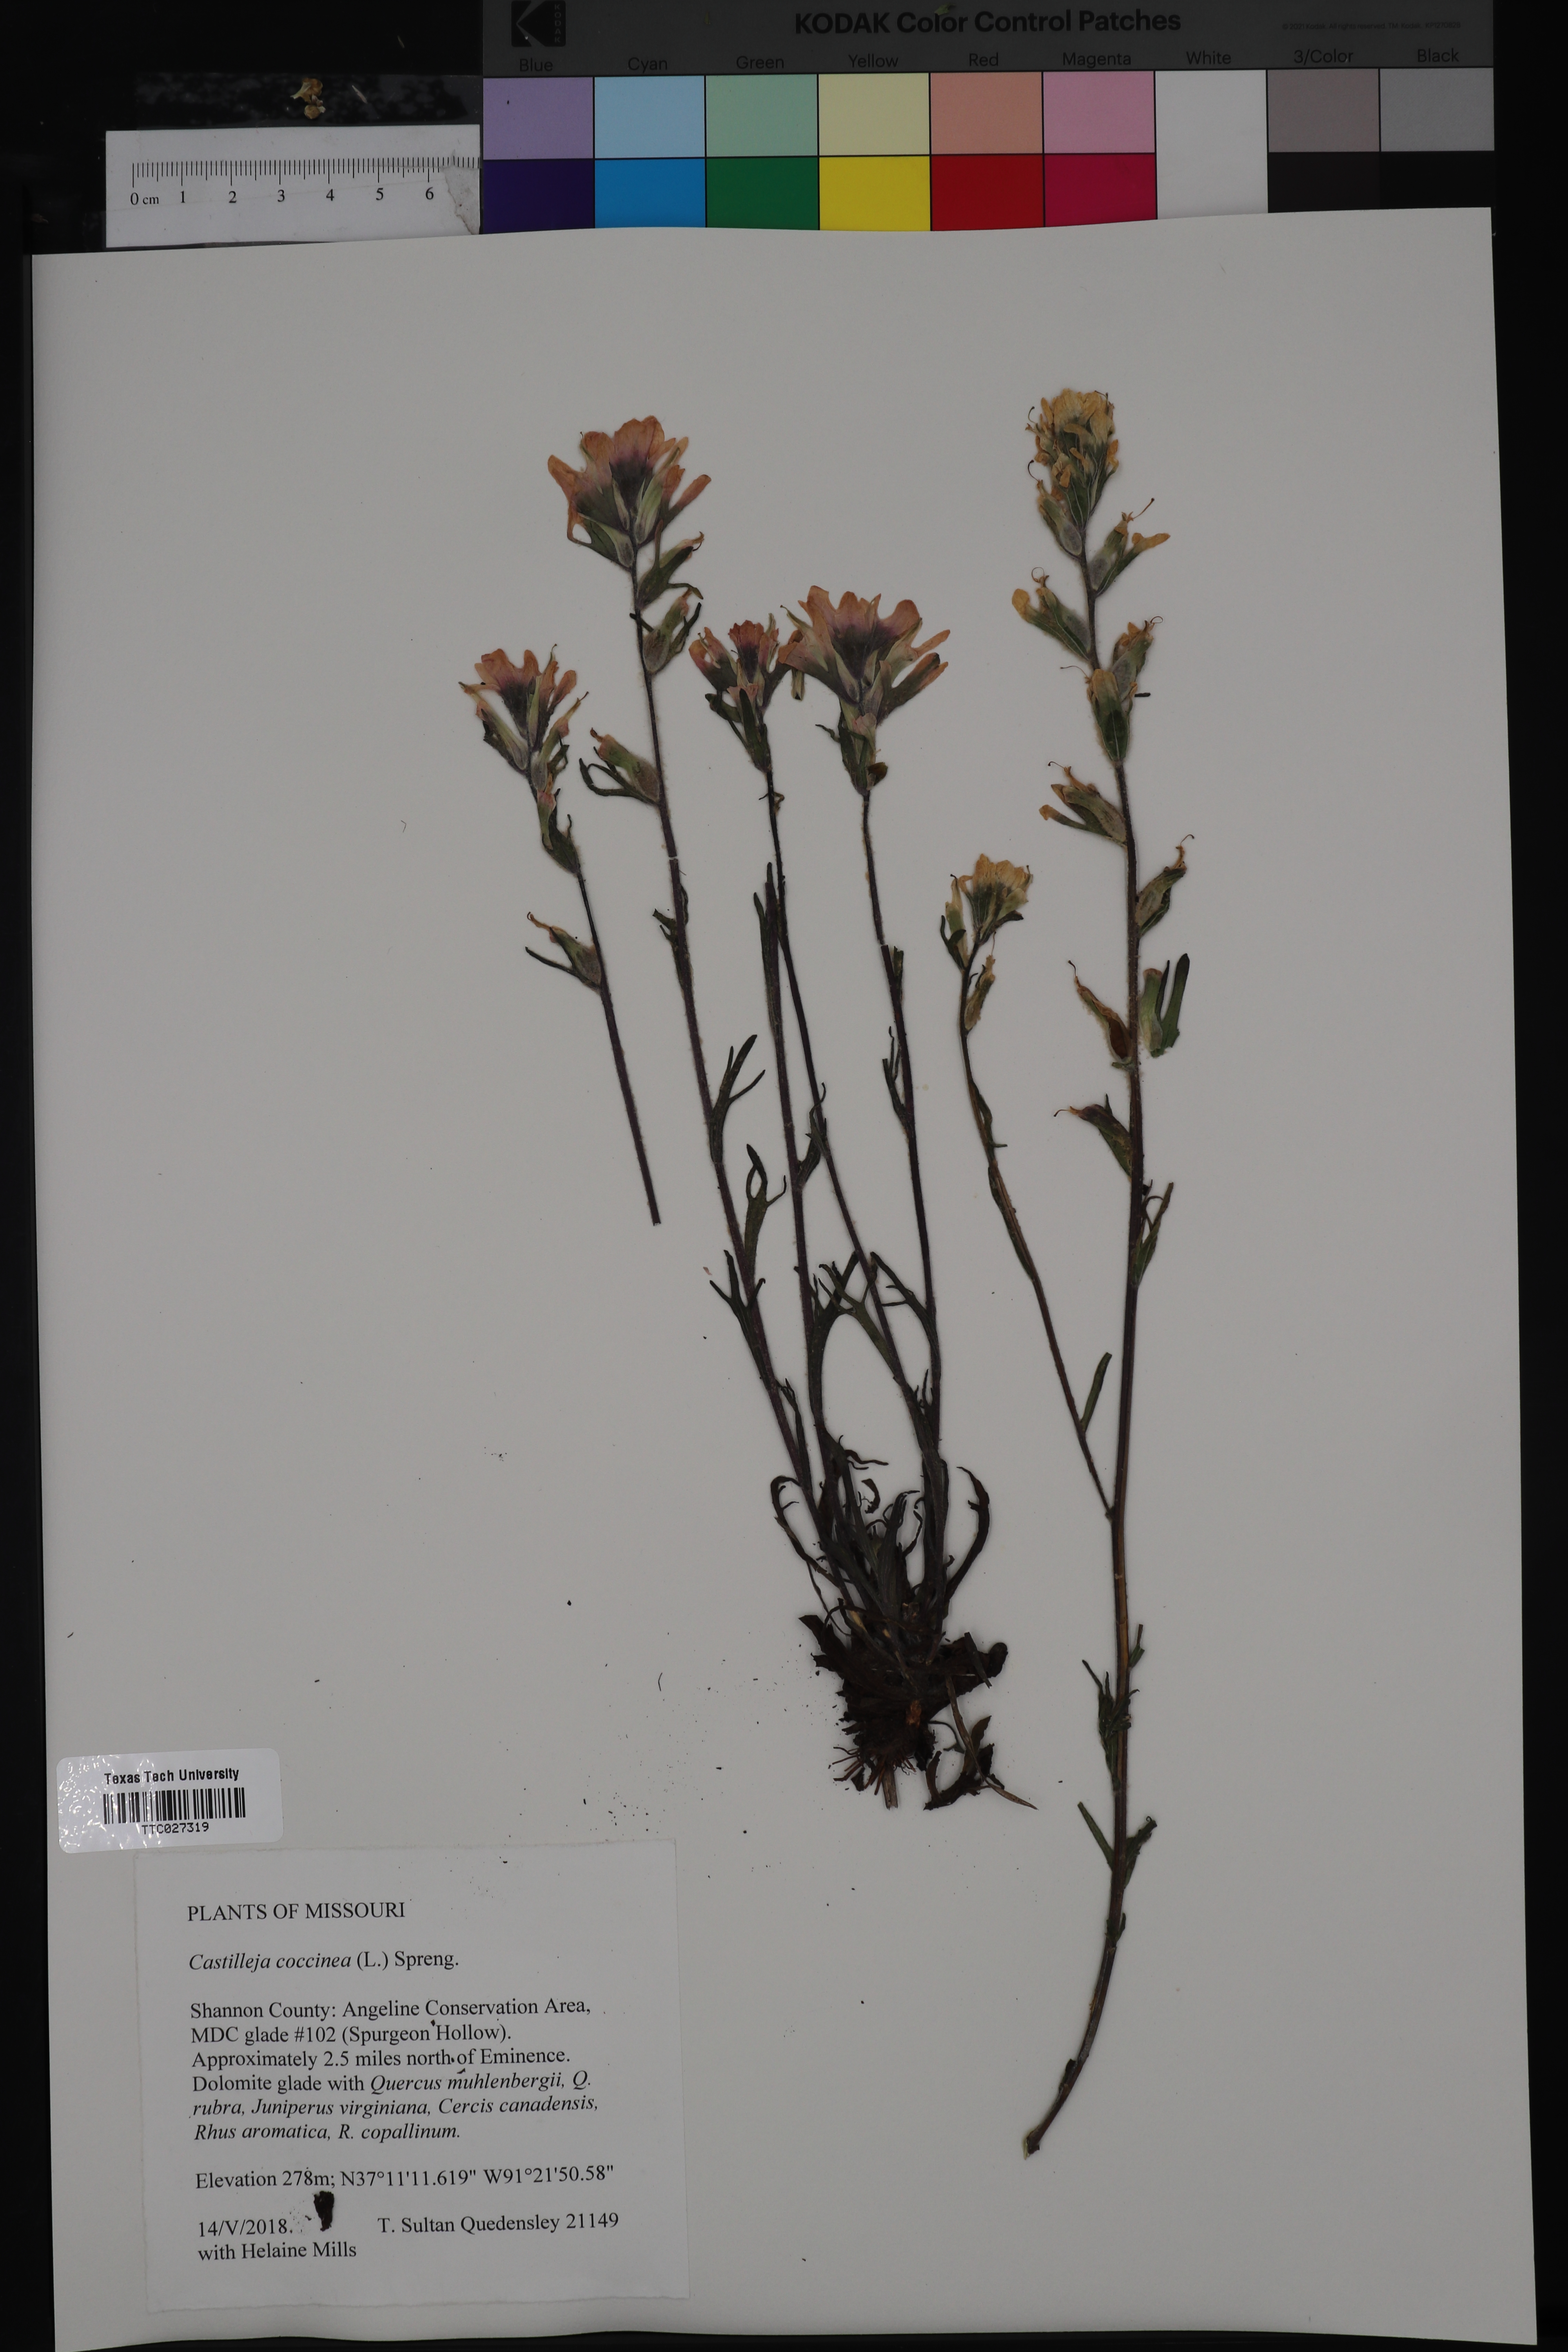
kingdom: Plantae
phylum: Tracheophyta
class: Magnoliopsida
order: Lamiales
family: Orobanchaceae
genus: Castilleja
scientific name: Castilleja coccinea
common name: Scarlet paintbrush
